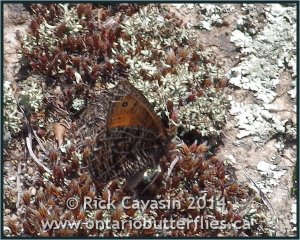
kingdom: Animalia
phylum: Arthropoda
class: Insecta
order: Lepidoptera
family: Nymphalidae
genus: Oeneis
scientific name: Oeneis chryxus
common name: Chryxus Arctic
